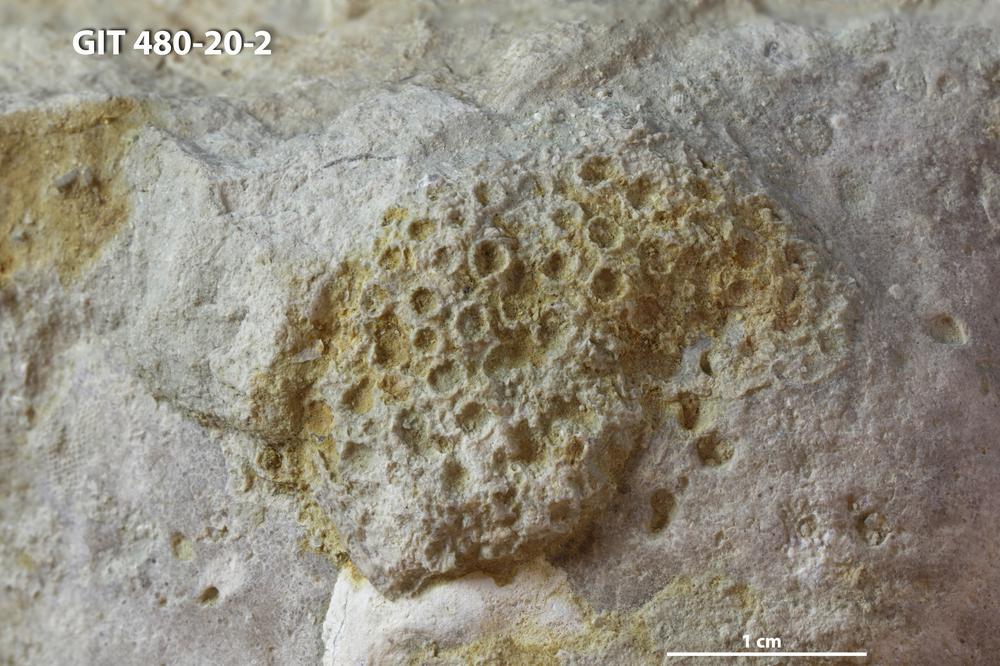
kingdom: Animalia
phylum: Xenacoelomorpha
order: Acoela
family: Proporidae
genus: Propora
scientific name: Propora
